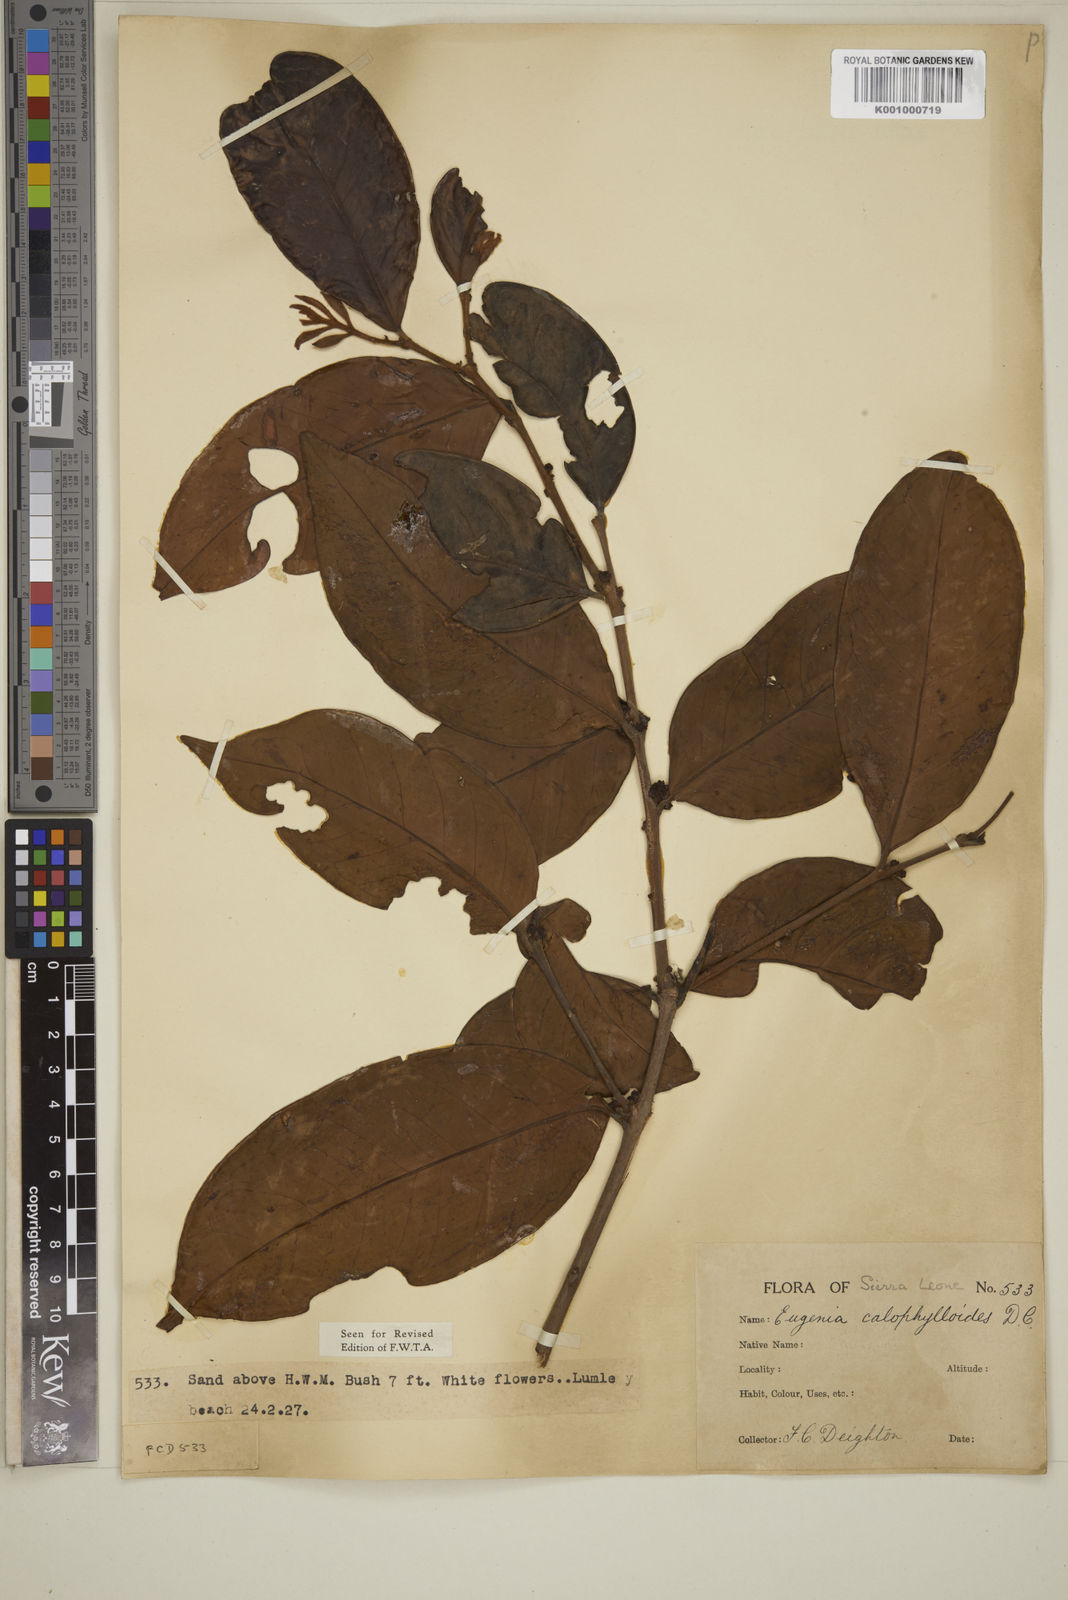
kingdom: Plantae
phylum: Tracheophyta
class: Magnoliopsida
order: Myrtales
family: Myrtaceae
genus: Eugenia
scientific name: Eugenia calophylloides
